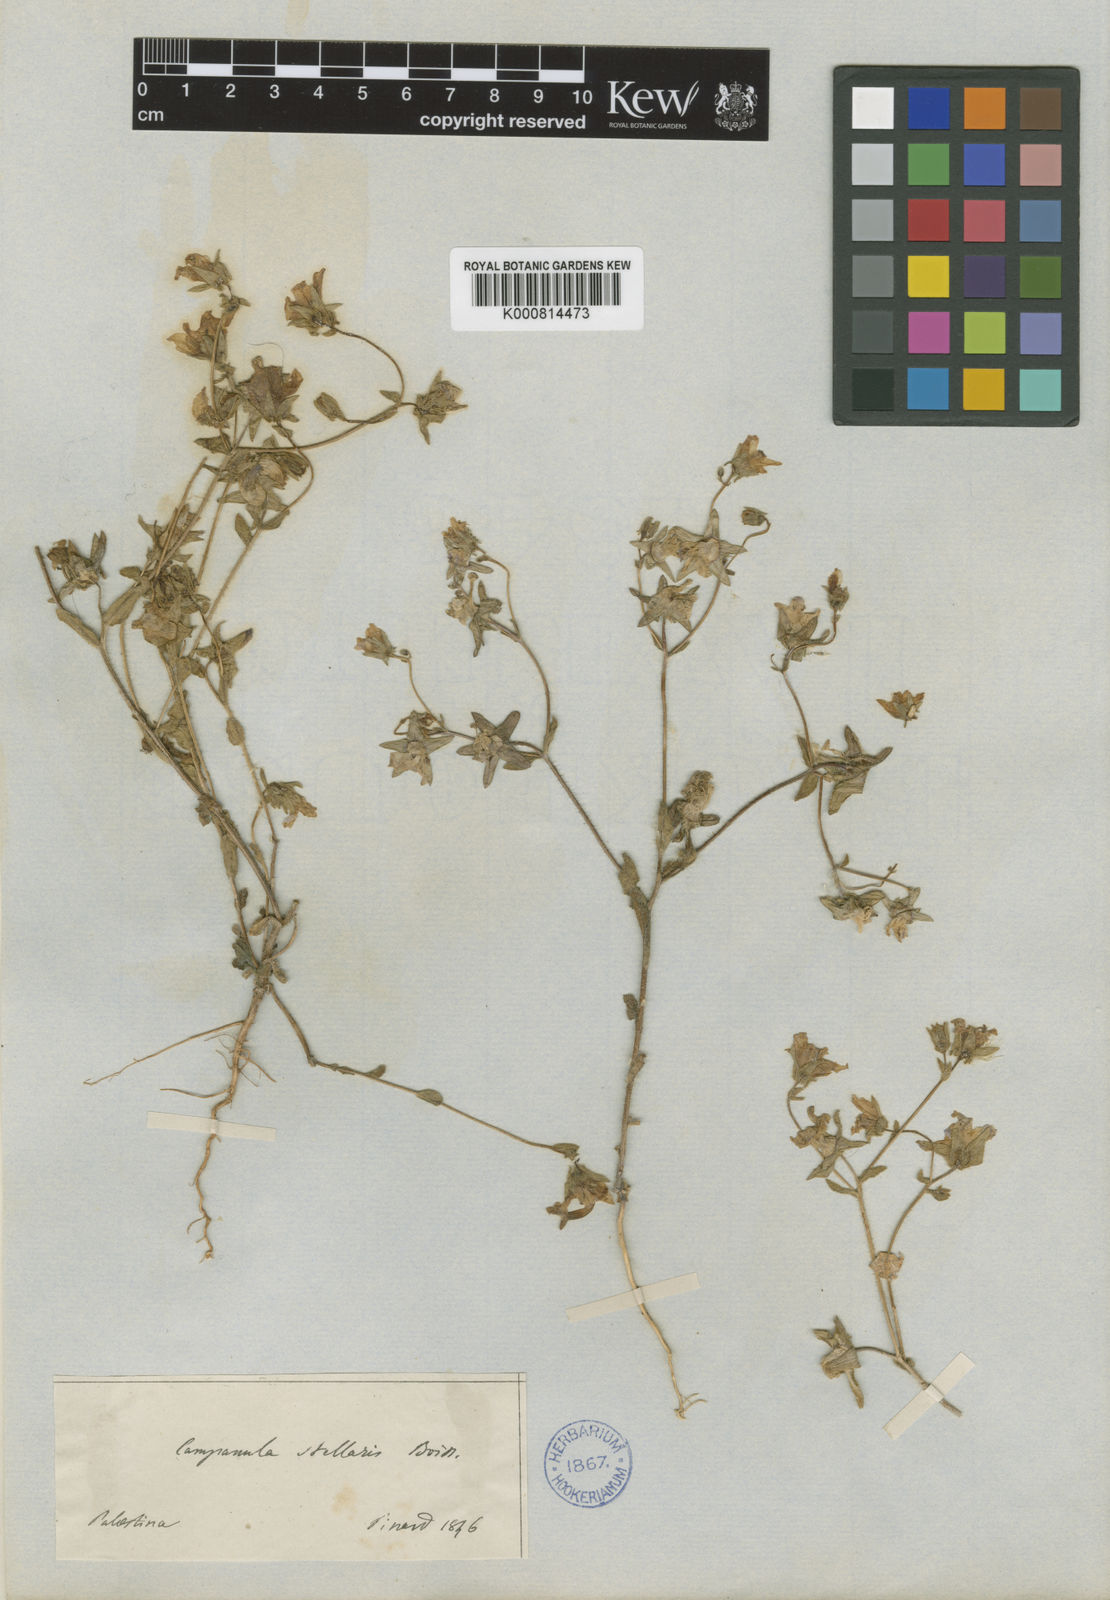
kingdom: Plantae
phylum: Tracheophyta
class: Magnoliopsida
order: Asterales
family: Campanulaceae
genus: Campanula
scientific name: Campanula stellaris
